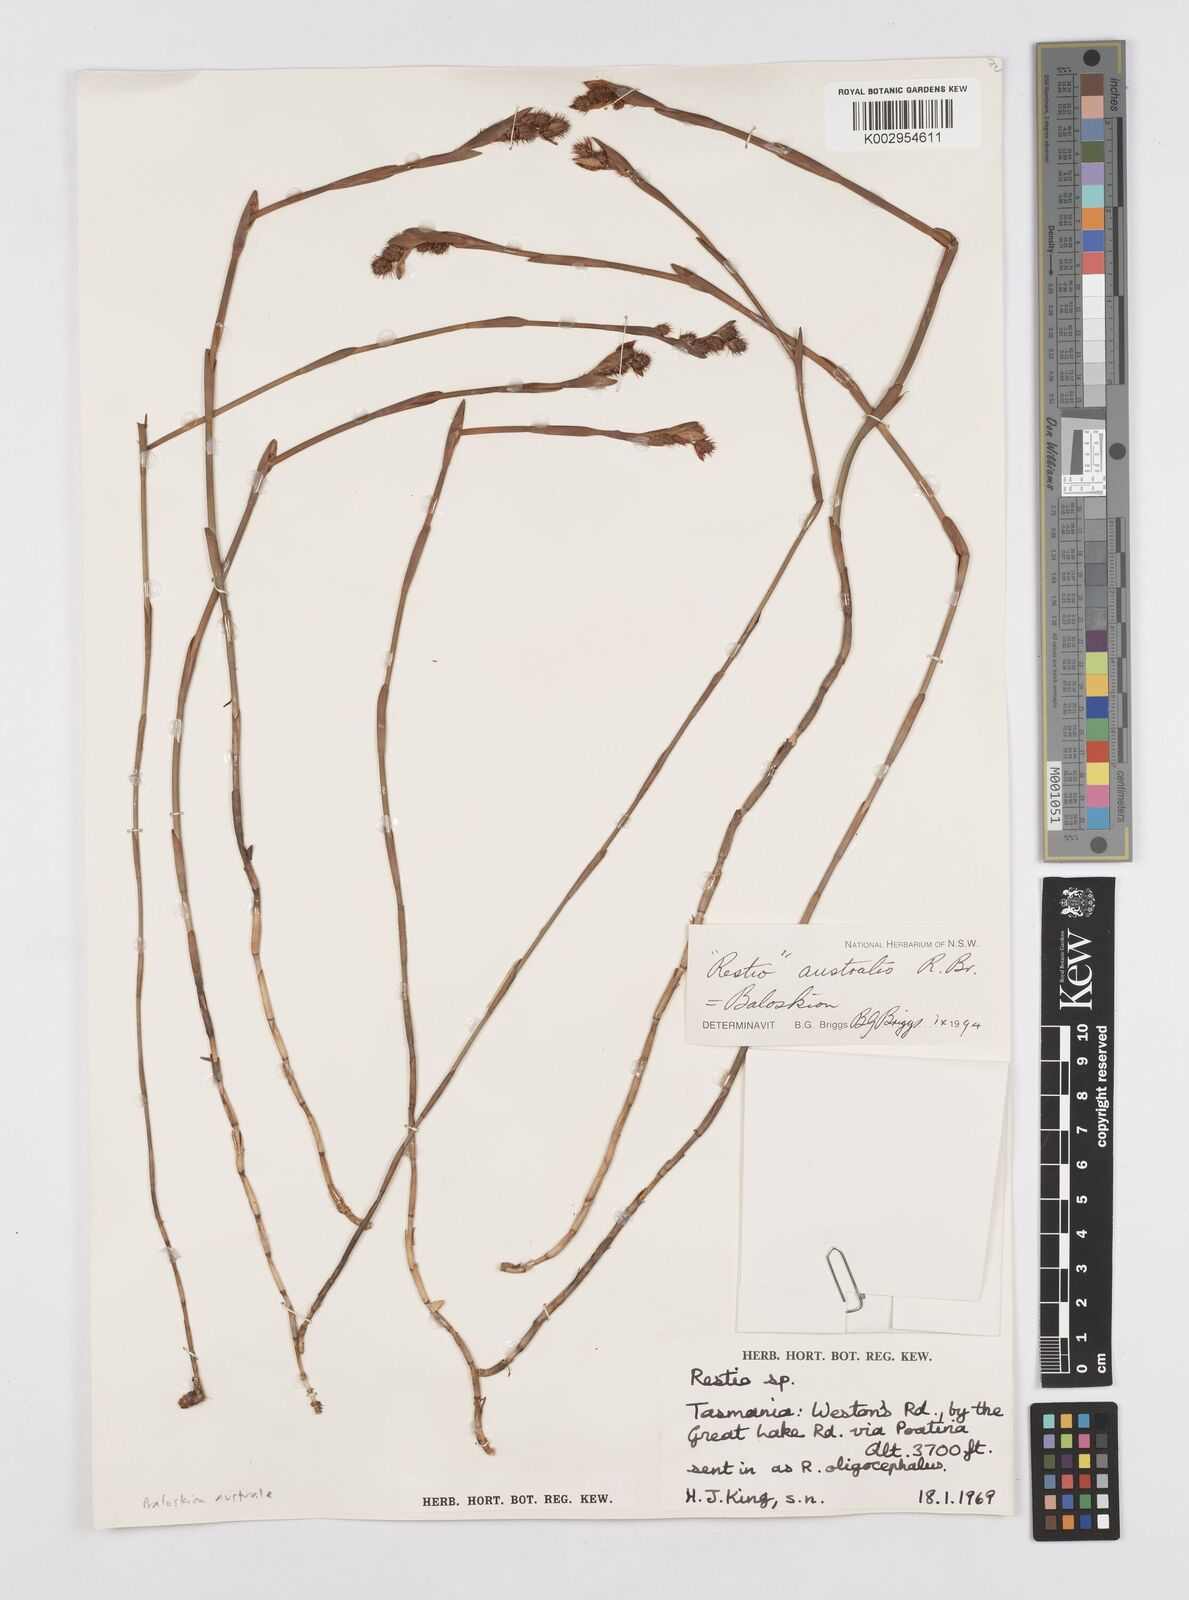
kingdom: Plantae
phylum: Tracheophyta
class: Liliopsida
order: Poales
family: Restionaceae
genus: Baloskion
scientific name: Baloskion australe
